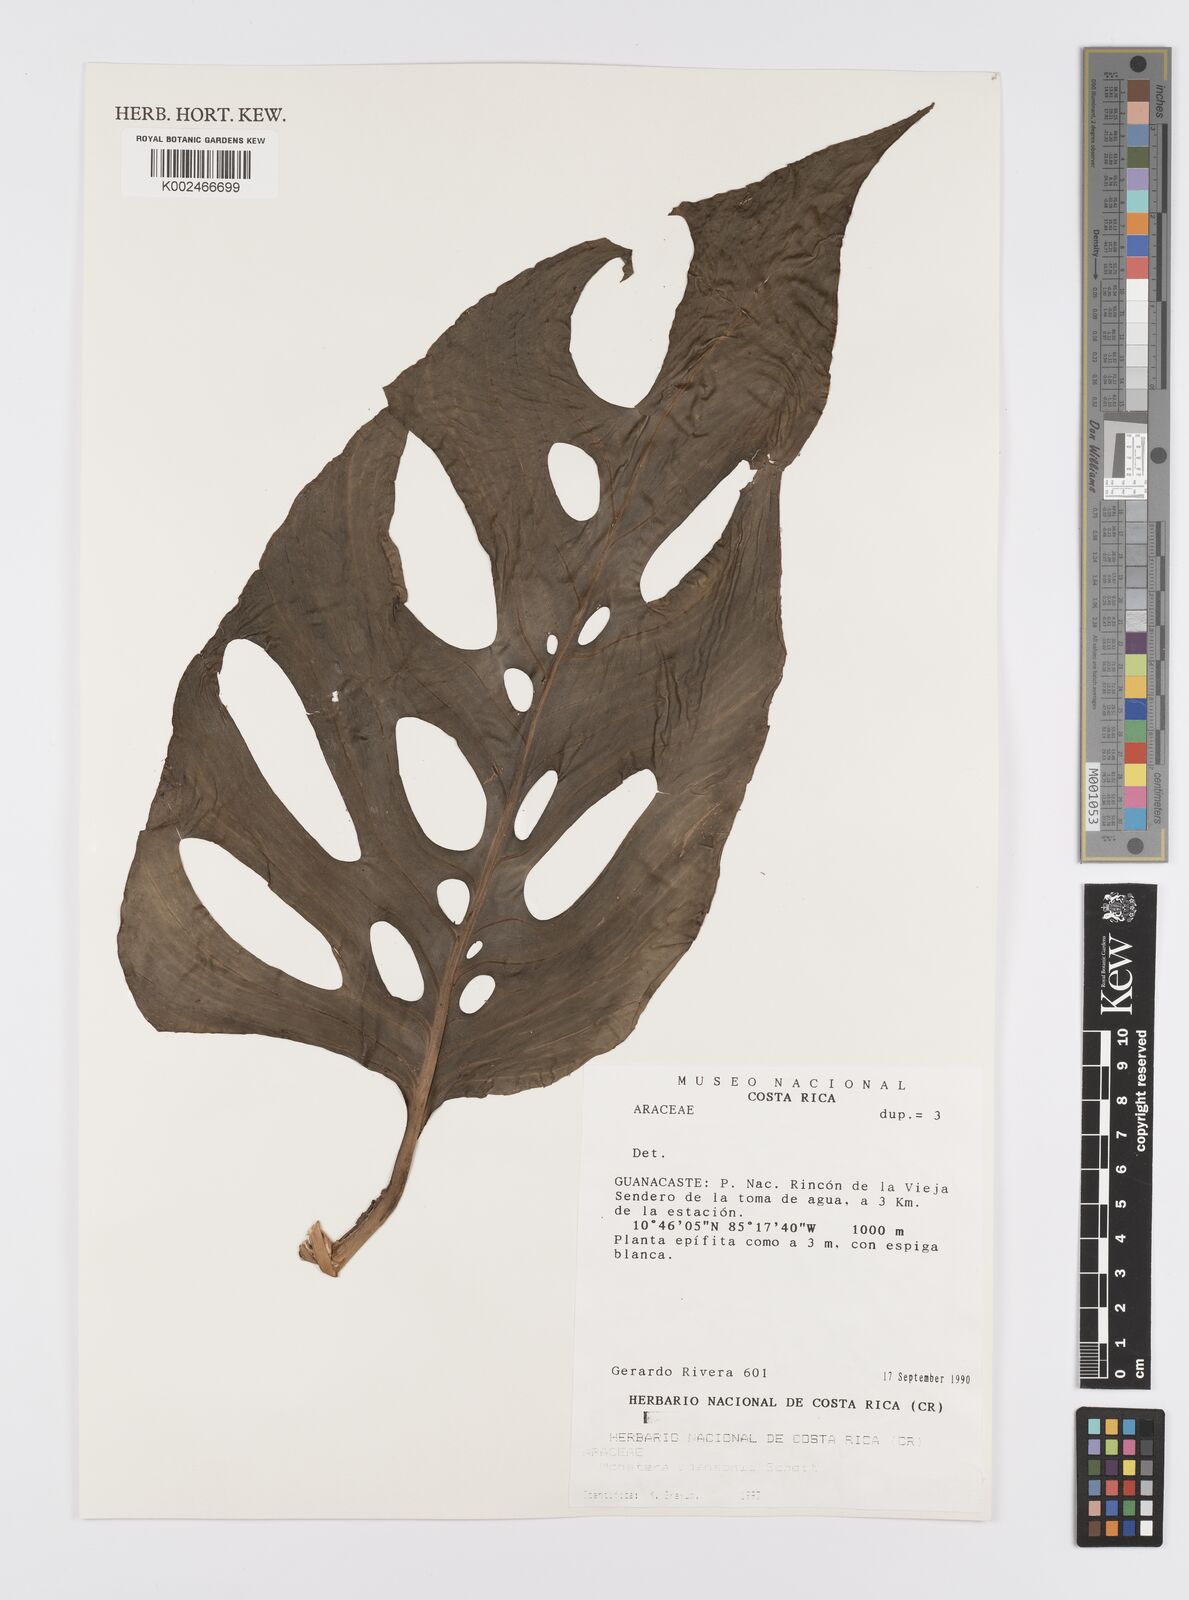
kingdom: Plantae
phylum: Tracheophyta
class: Liliopsida
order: Alismatales
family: Araceae
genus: Monstera
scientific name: Monstera adansonii
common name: Tarovine
